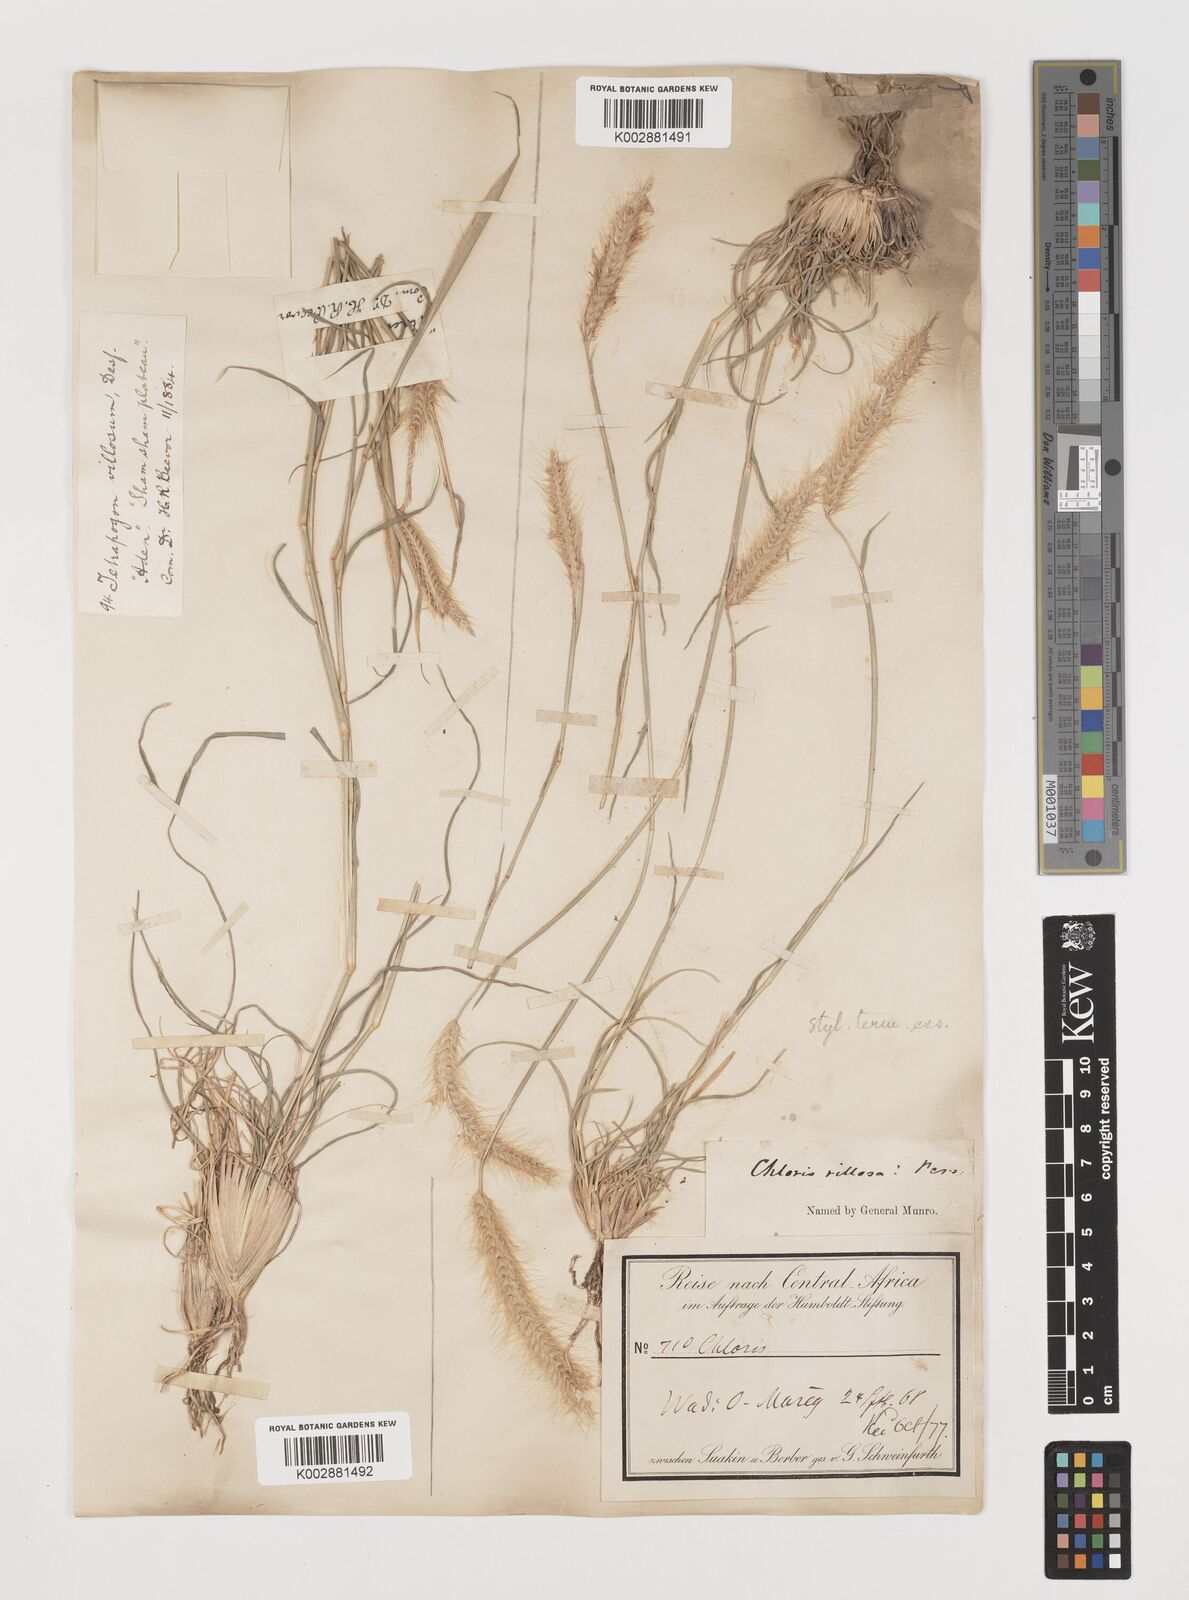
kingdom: Plantae
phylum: Tracheophyta
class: Liliopsida
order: Poales
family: Poaceae
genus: Tetrapogon
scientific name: Tetrapogon villosus
